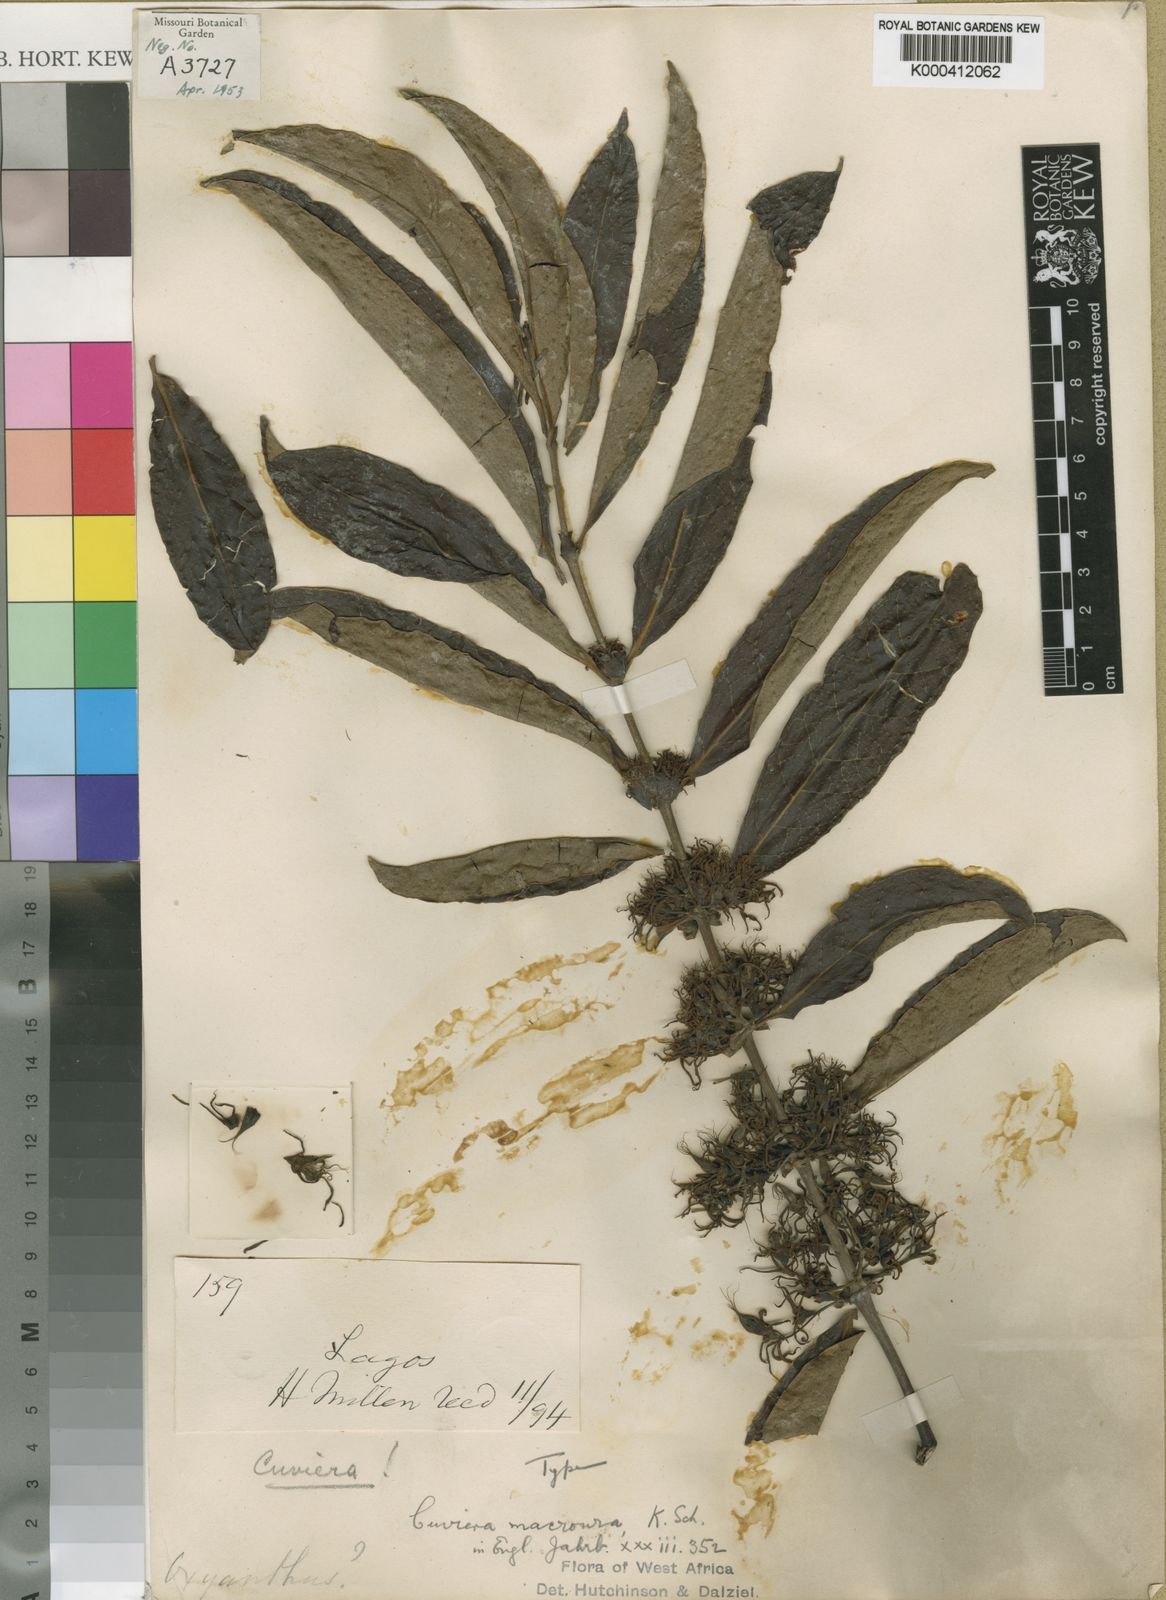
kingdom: Plantae
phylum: Tracheophyta
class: Magnoliopsida
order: Gentianales
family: Rubiaceae
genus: Cuviera
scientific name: Cuviera macroura
